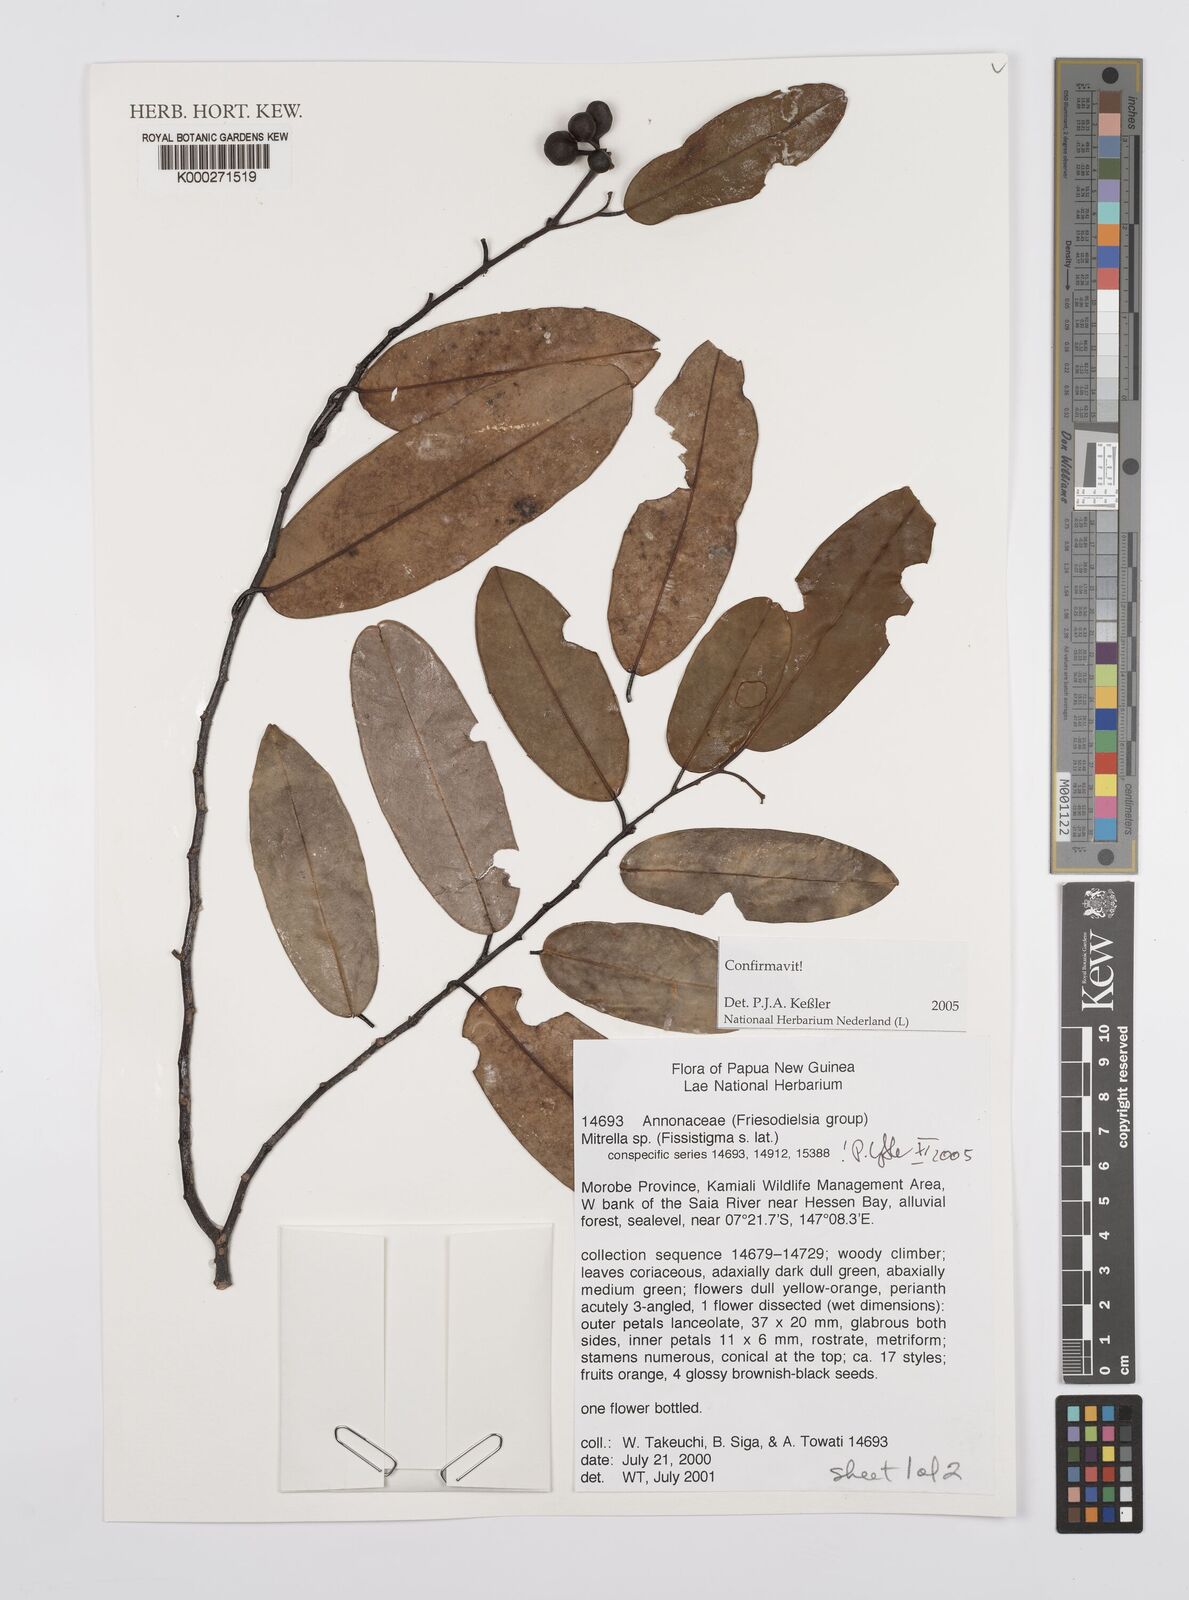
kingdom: Plantae
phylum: Tracheophyta
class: Magnoliopsida
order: Magnoliales
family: Annonaceae
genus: Mitrella
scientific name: Mitrella
